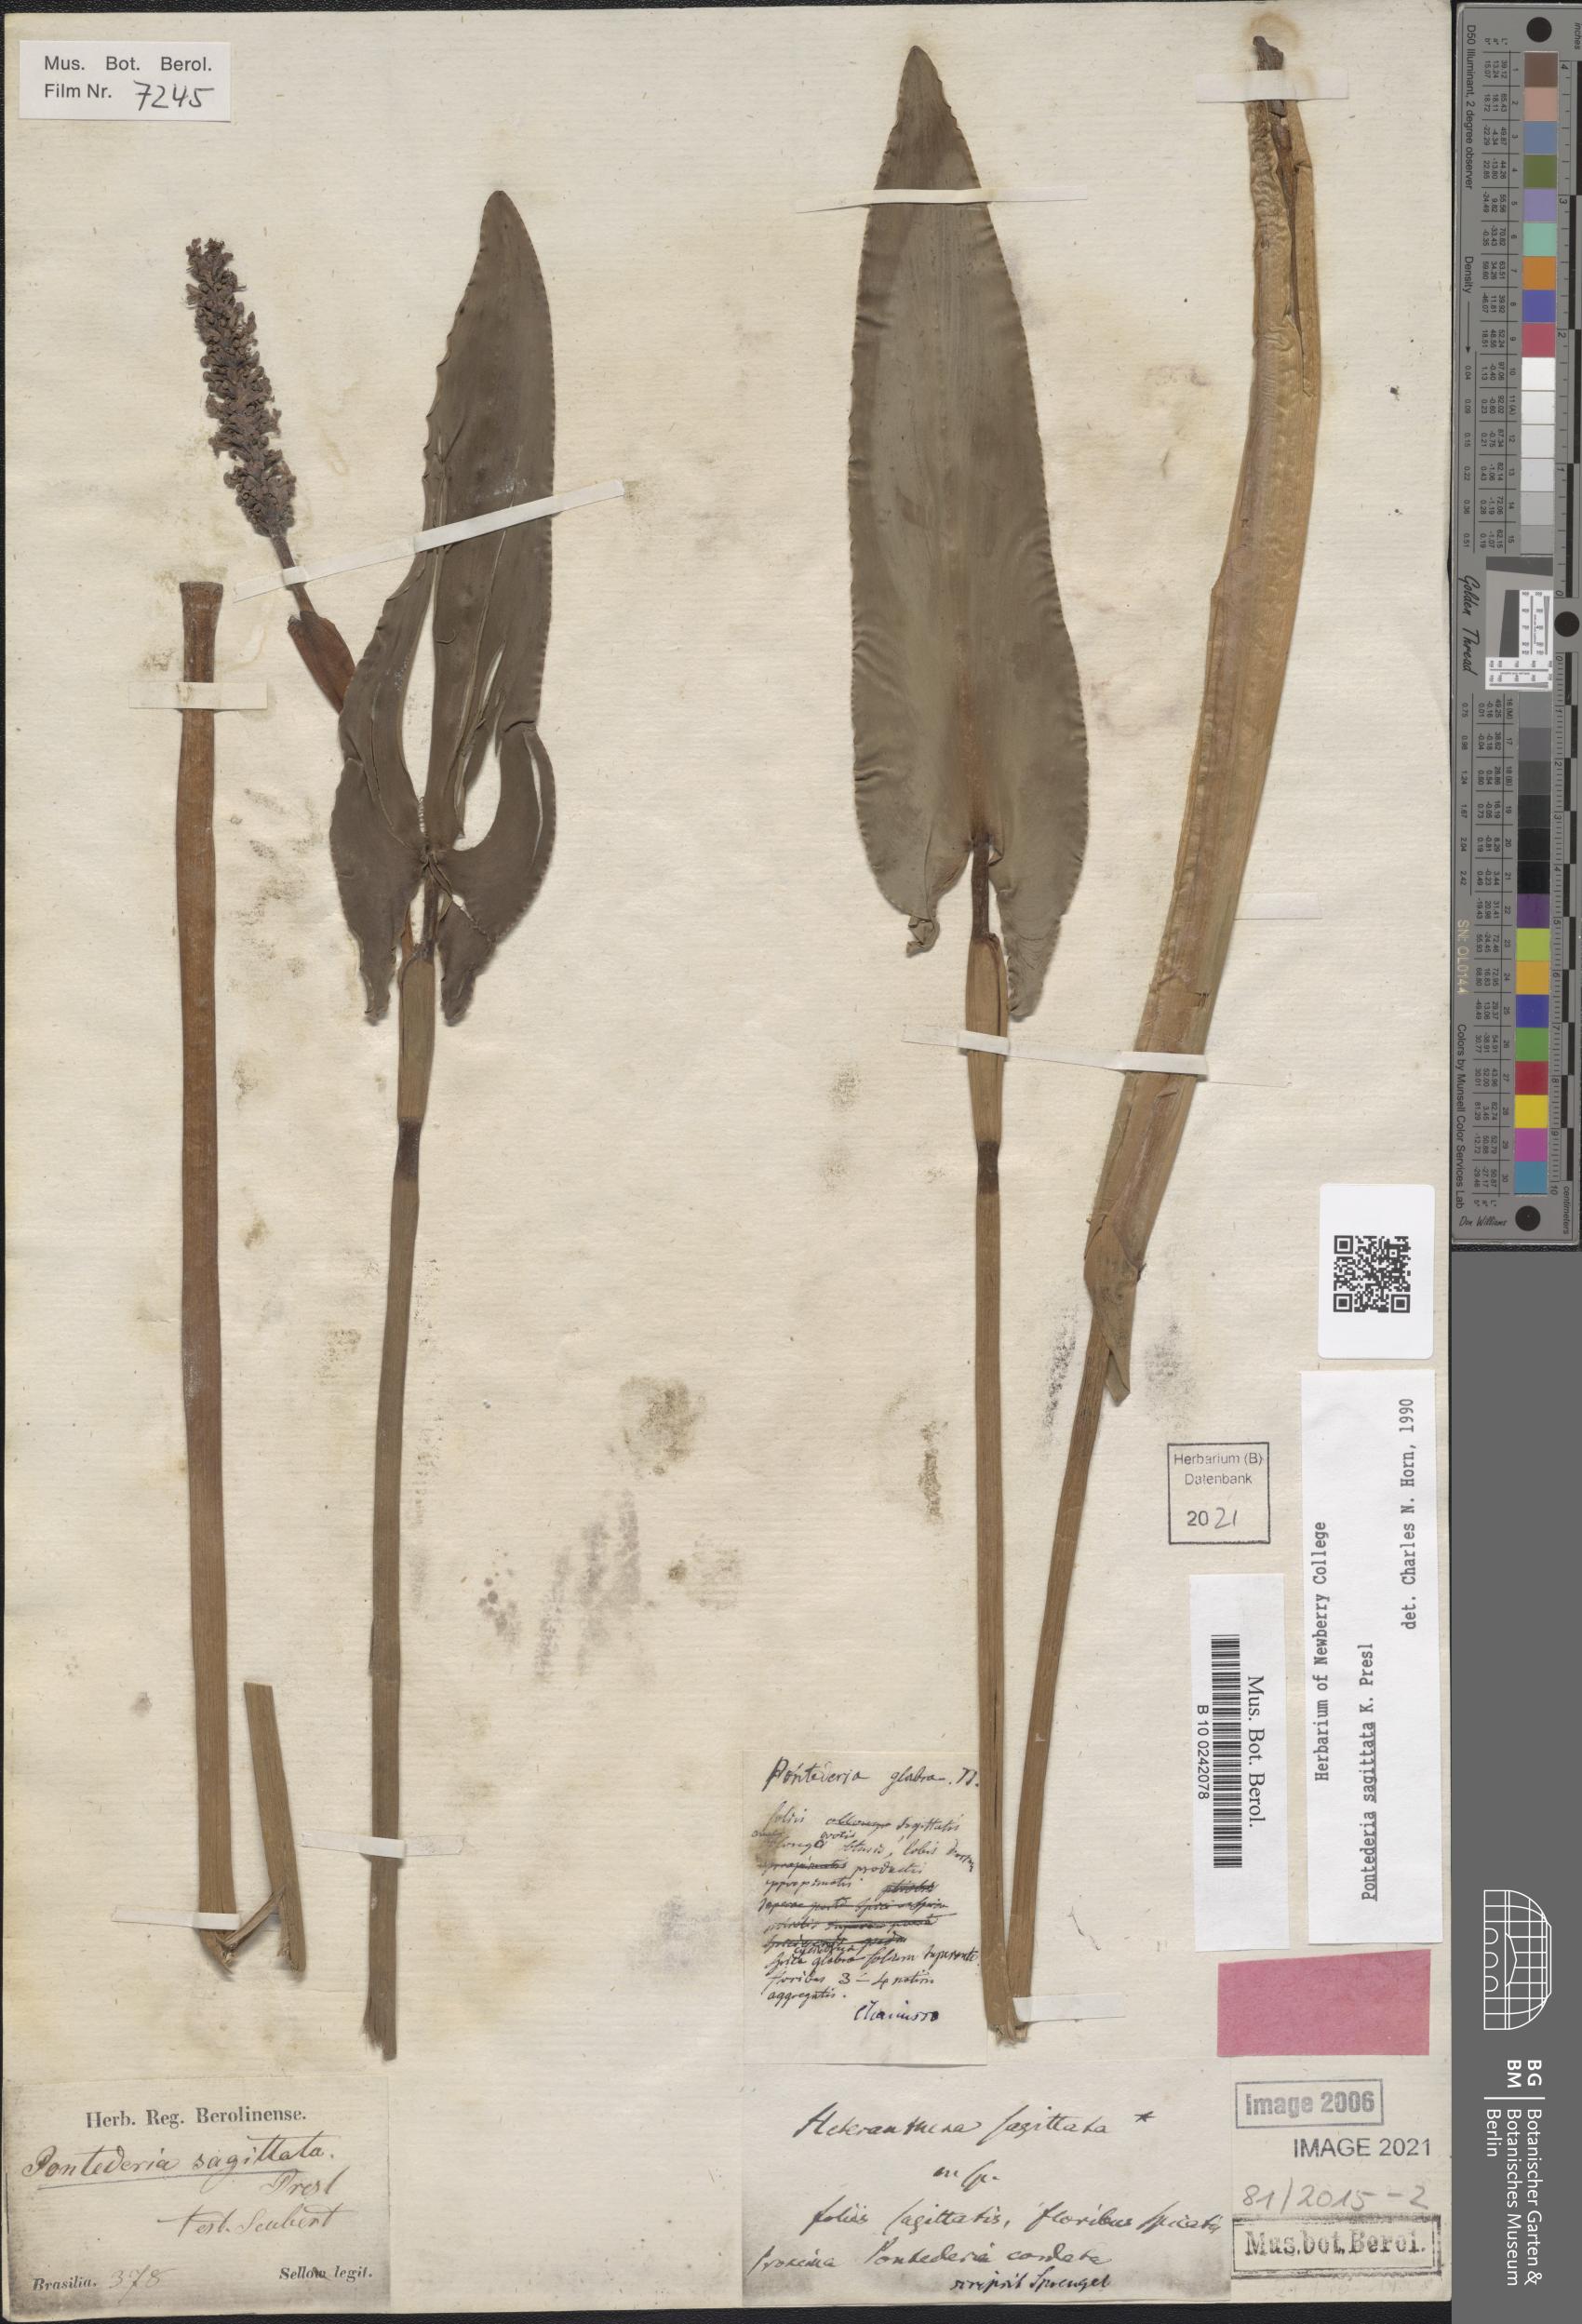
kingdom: Plantae
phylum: Tracheophyta
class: Liliopsida
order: Commelinales
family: Pontederiaceae
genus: Pontederia
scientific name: Pontederia sagittata
